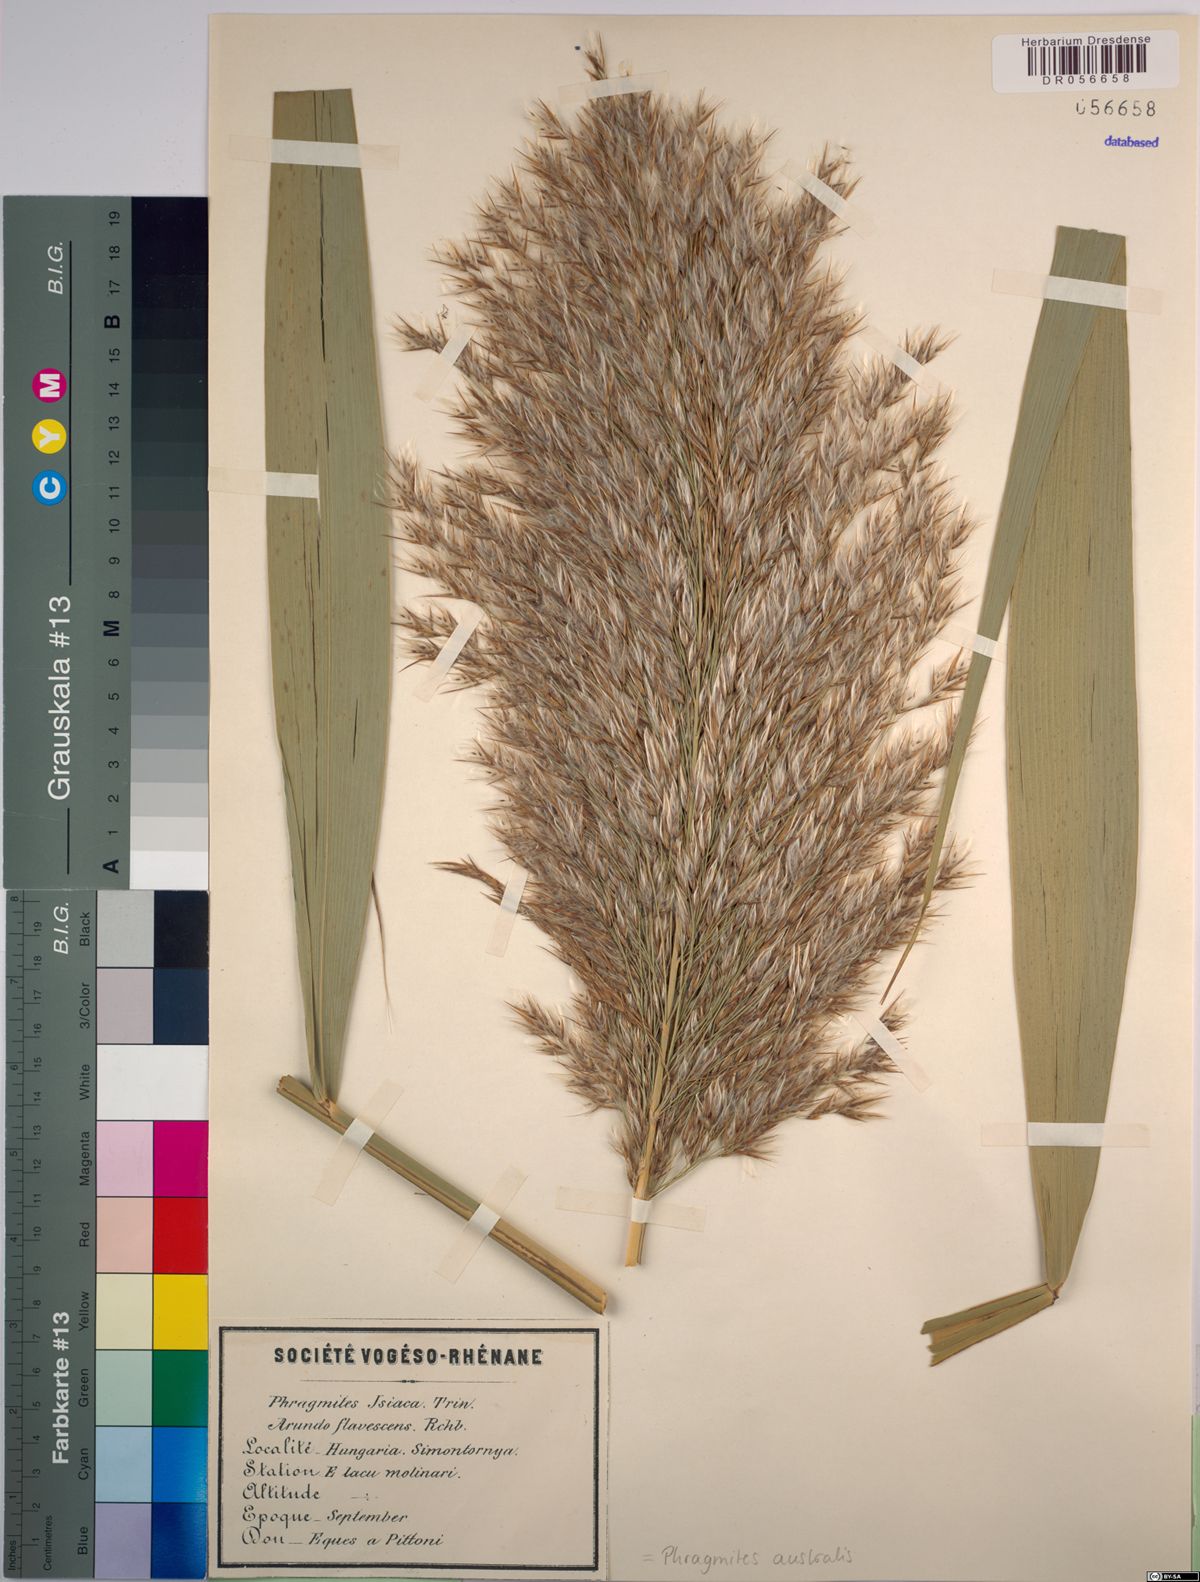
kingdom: Plantae
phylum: Tracheophyta
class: Liliopsida
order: Poales
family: Poaceae
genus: Phragmites
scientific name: Phragmites australis
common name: Common reed
